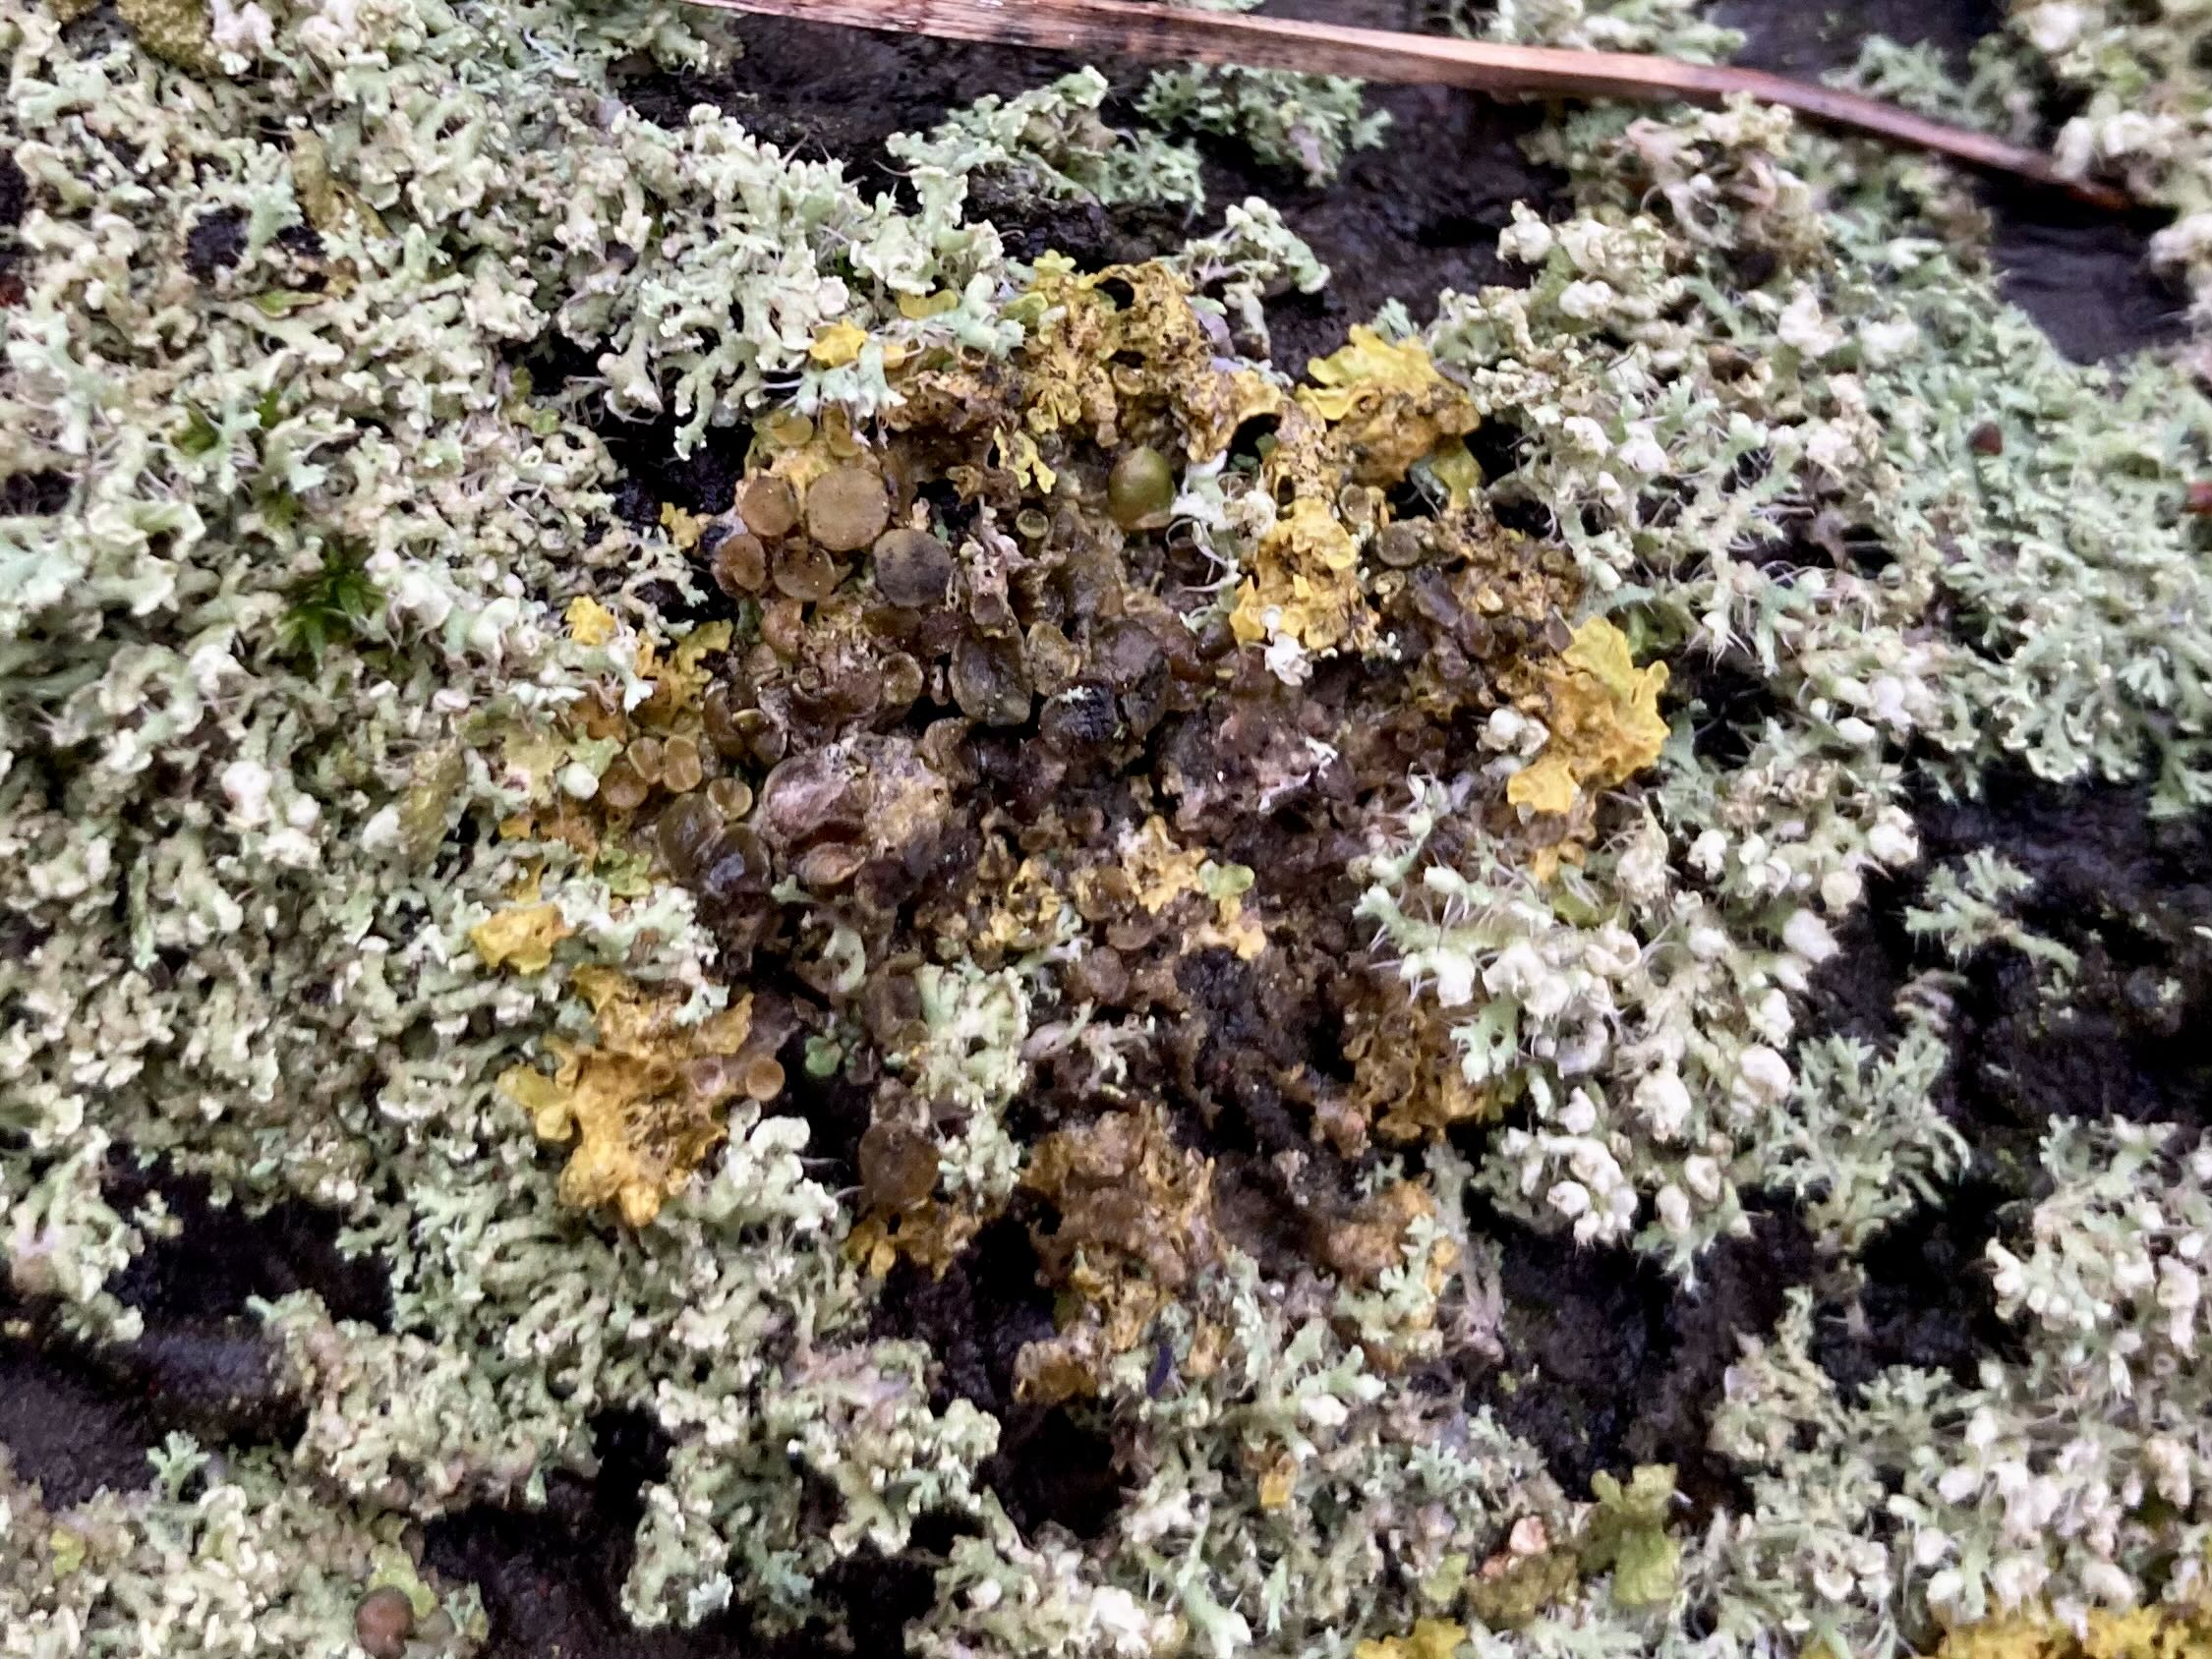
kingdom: Fungi
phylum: Ascomycota
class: Dothideomycetes
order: Mycosphaerellales
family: Teratosphaeriaceae
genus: Xanthoriicola
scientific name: Xanthoriicola physciae
